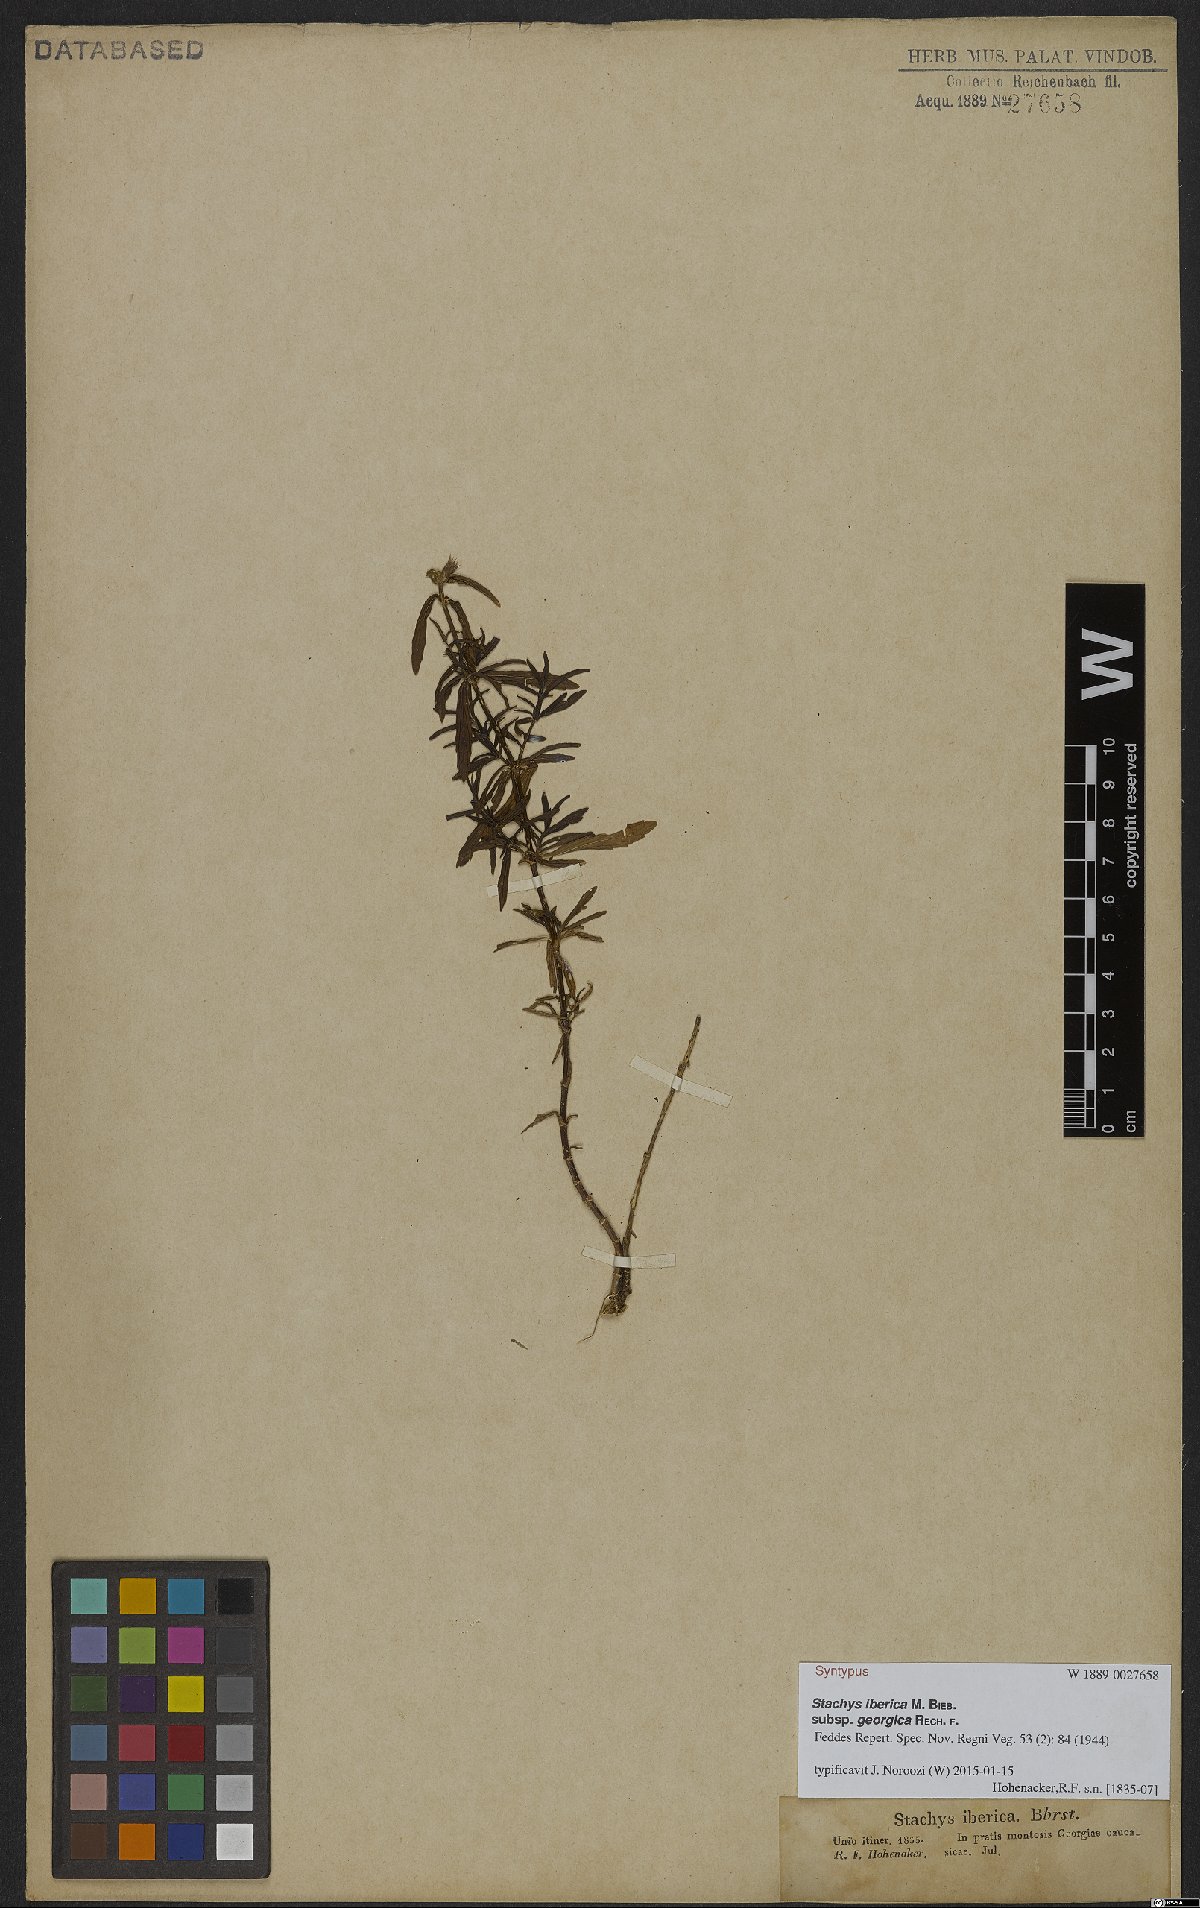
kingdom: Plantae
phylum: Tracheophyta
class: Magnoliopsida
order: Lamiales
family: Lamiaceae
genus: Stachys
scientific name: Stachys iberica
